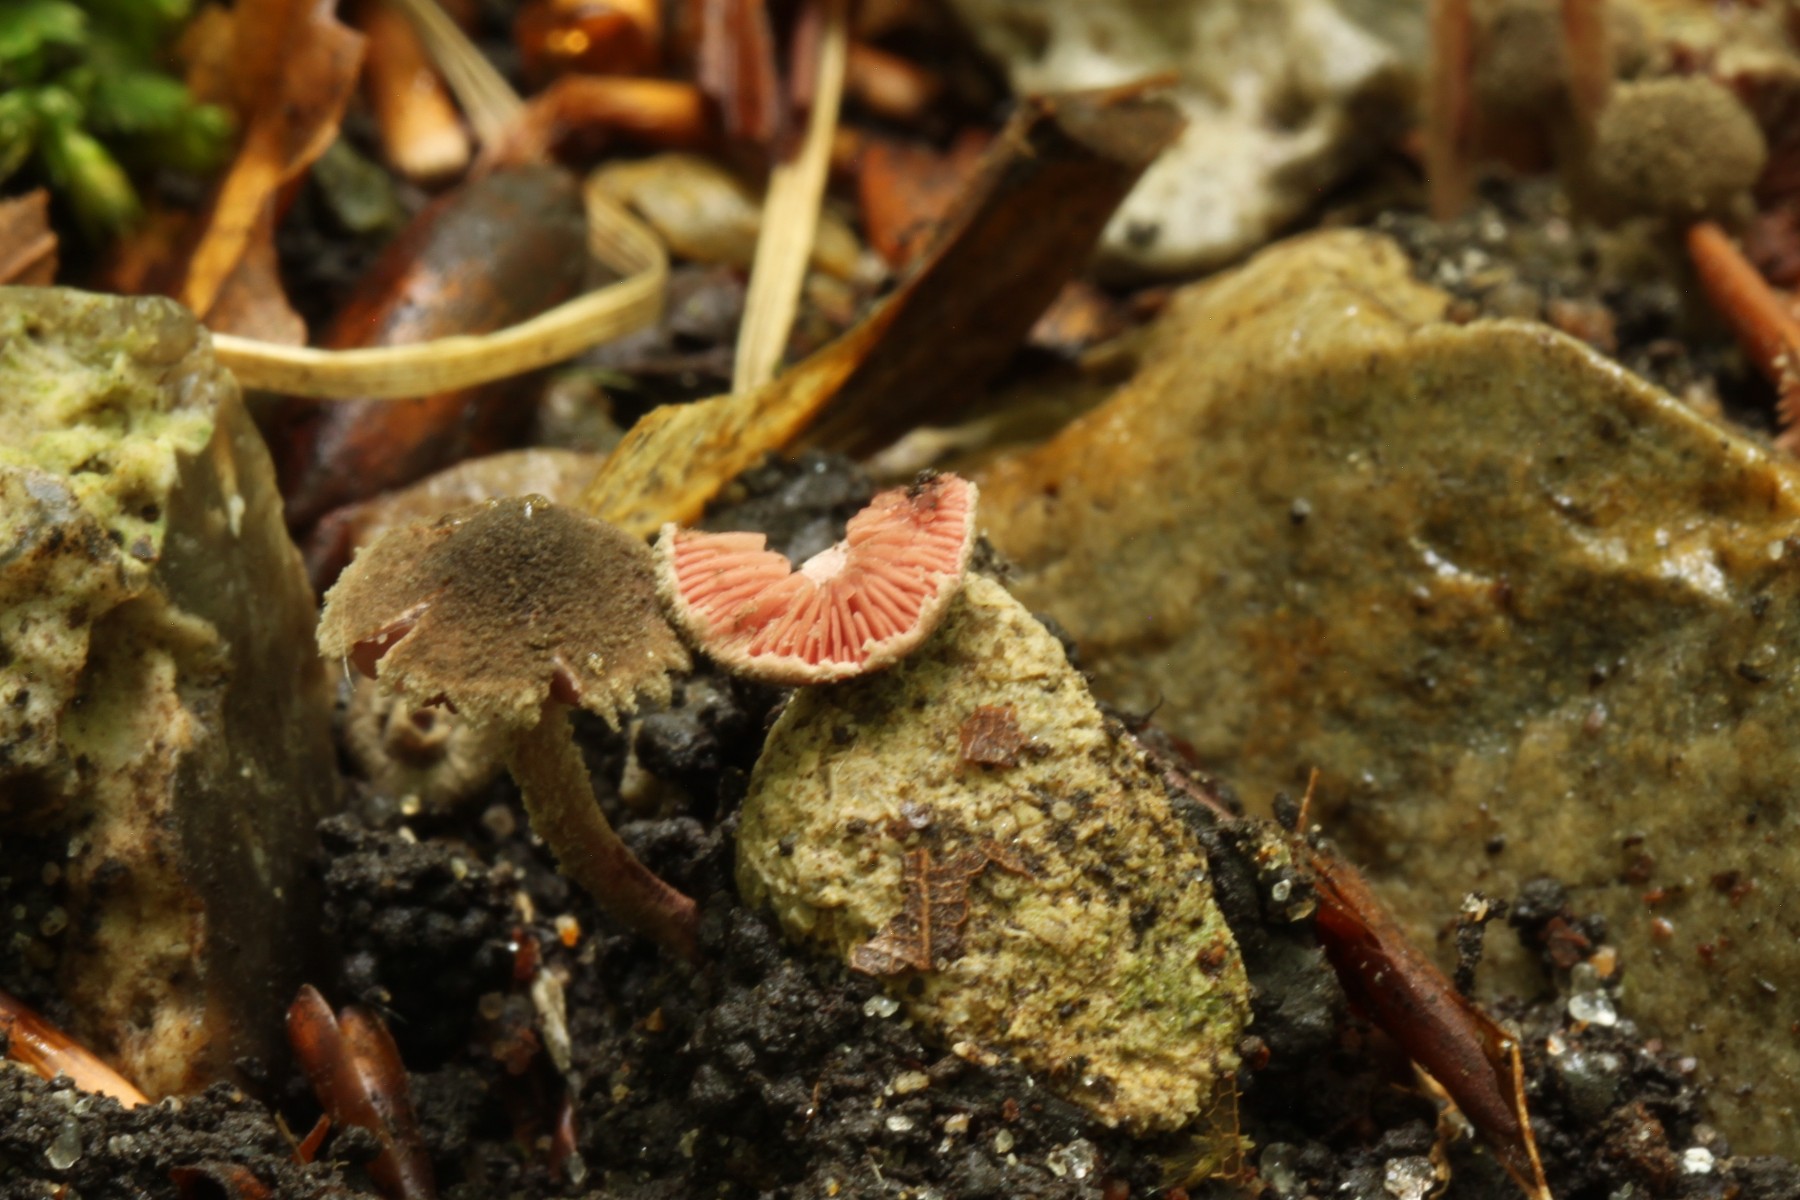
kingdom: Fungi
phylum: Basidiomycota
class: Agaricomycetes
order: Agaricales
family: Agaricaceae
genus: Melanophyllum
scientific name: Melanophyllum haematospermum
